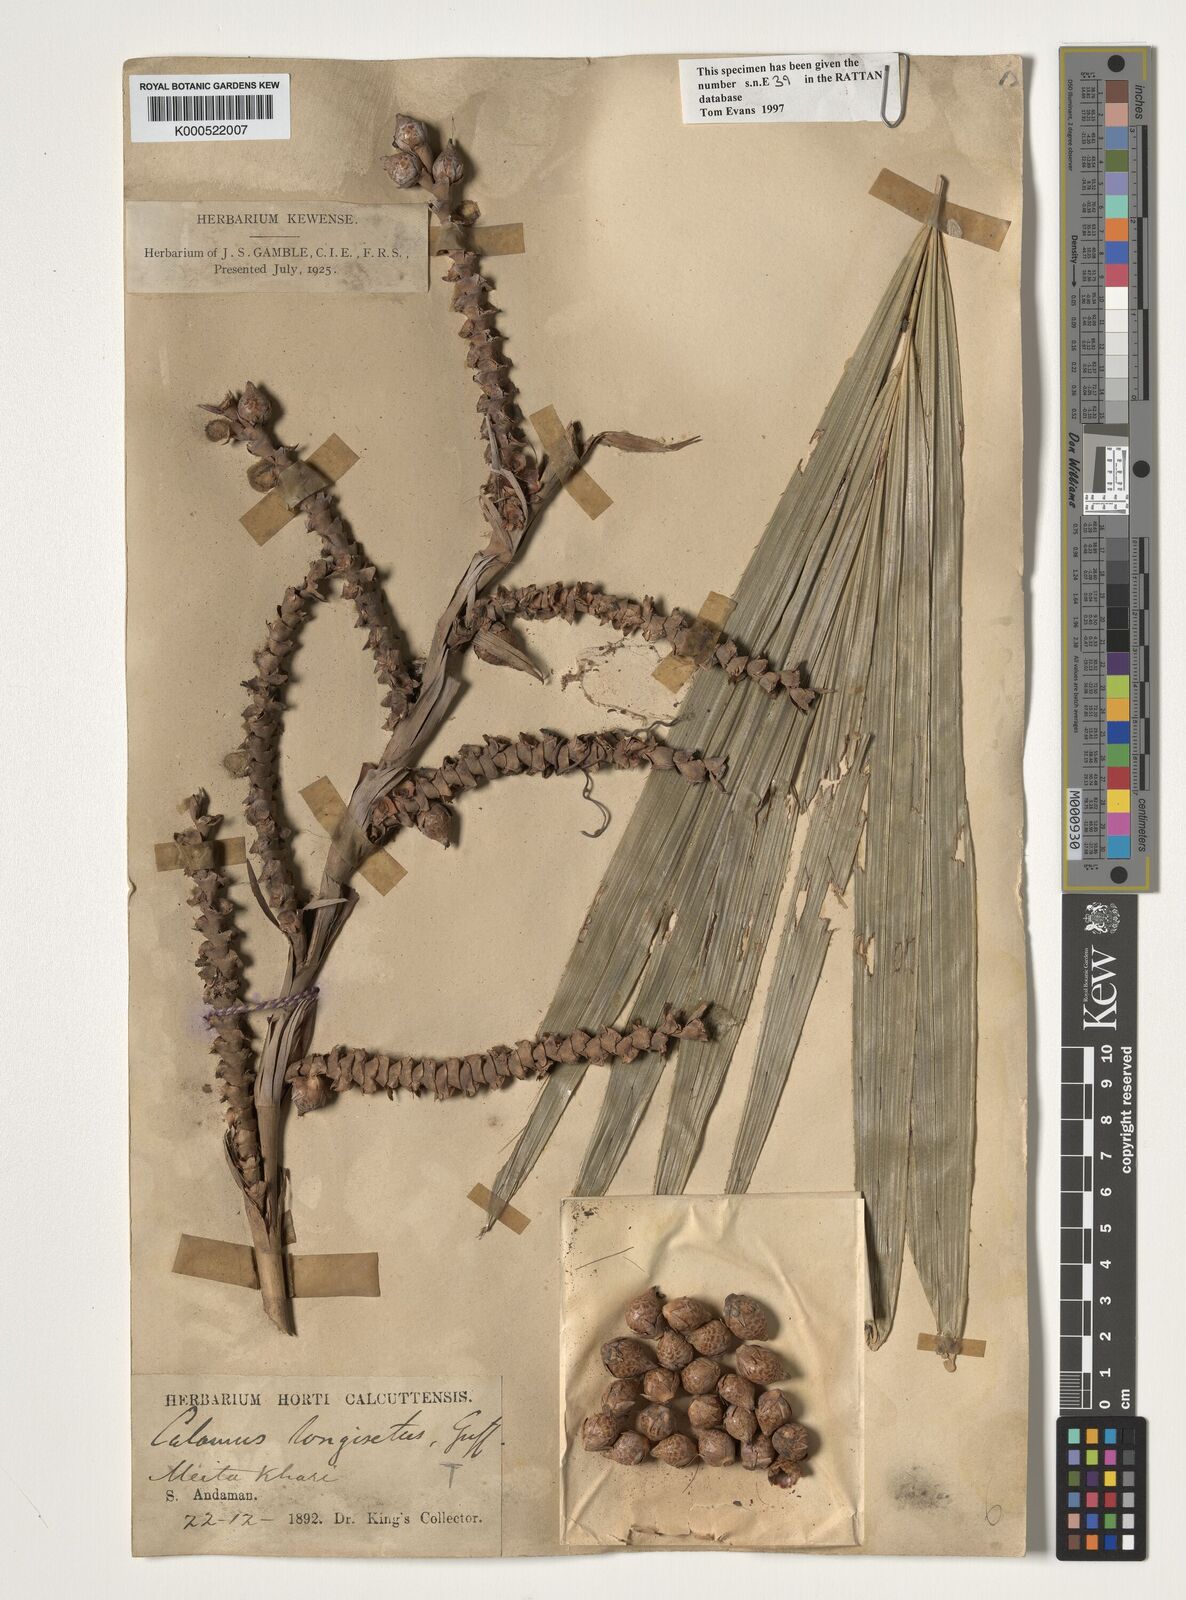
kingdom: Plantae
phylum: Tracheophyta
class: Liliopsida
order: Arecales
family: Arecaceae
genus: Calamus
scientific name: Calamus longisetus
